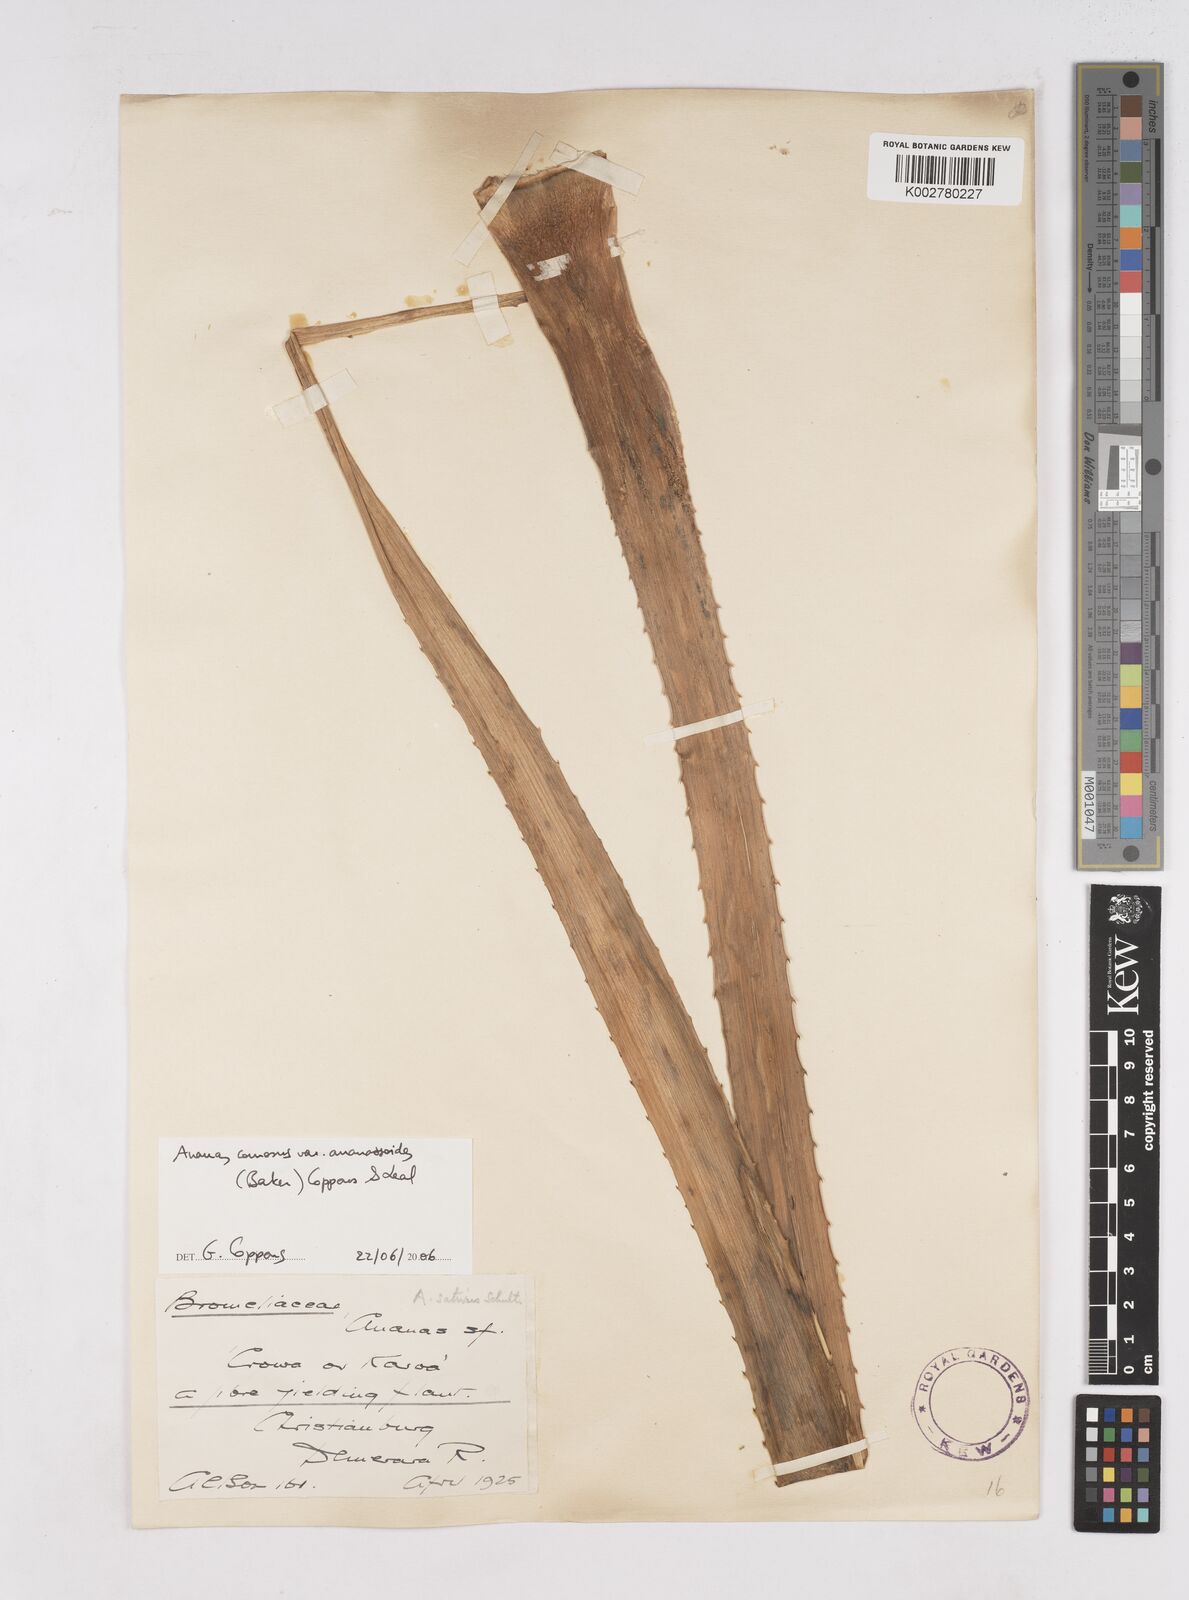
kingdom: Plantae
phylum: Tracheophyta
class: Liliopsida
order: Poales
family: Bromeliaceae
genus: Ananas
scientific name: Ananas comosus
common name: Pineapple
